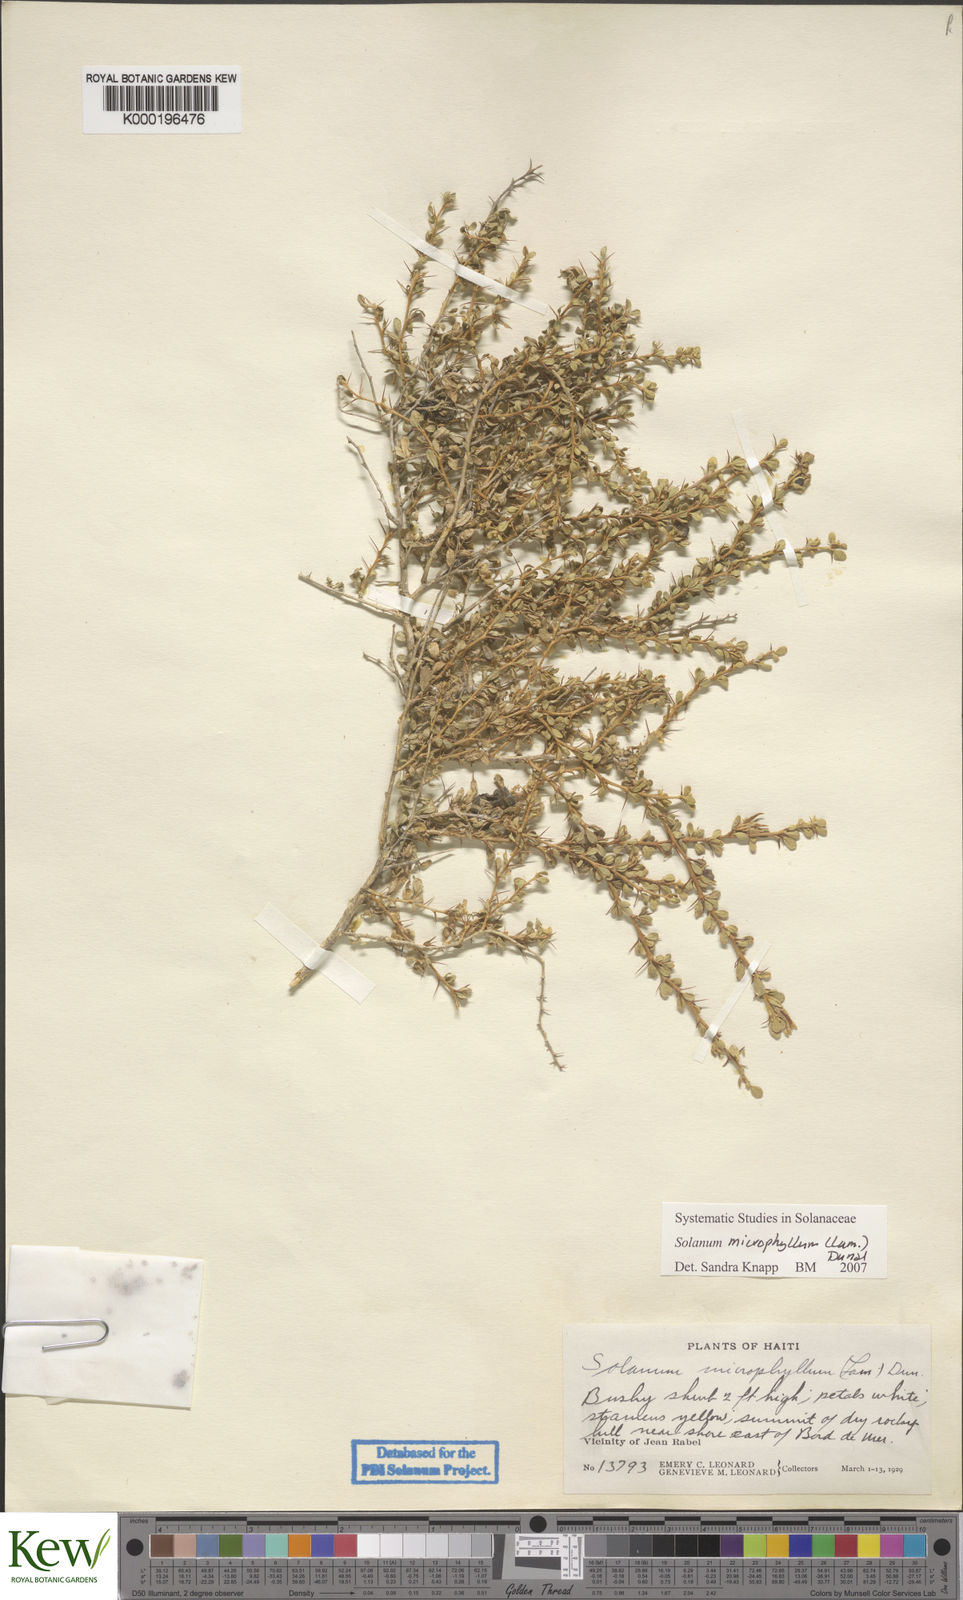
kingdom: Plantae
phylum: Tracheophyta
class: Magnoliopsida
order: Solanales
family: Solanaceae
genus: Solanum
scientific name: Solanum
